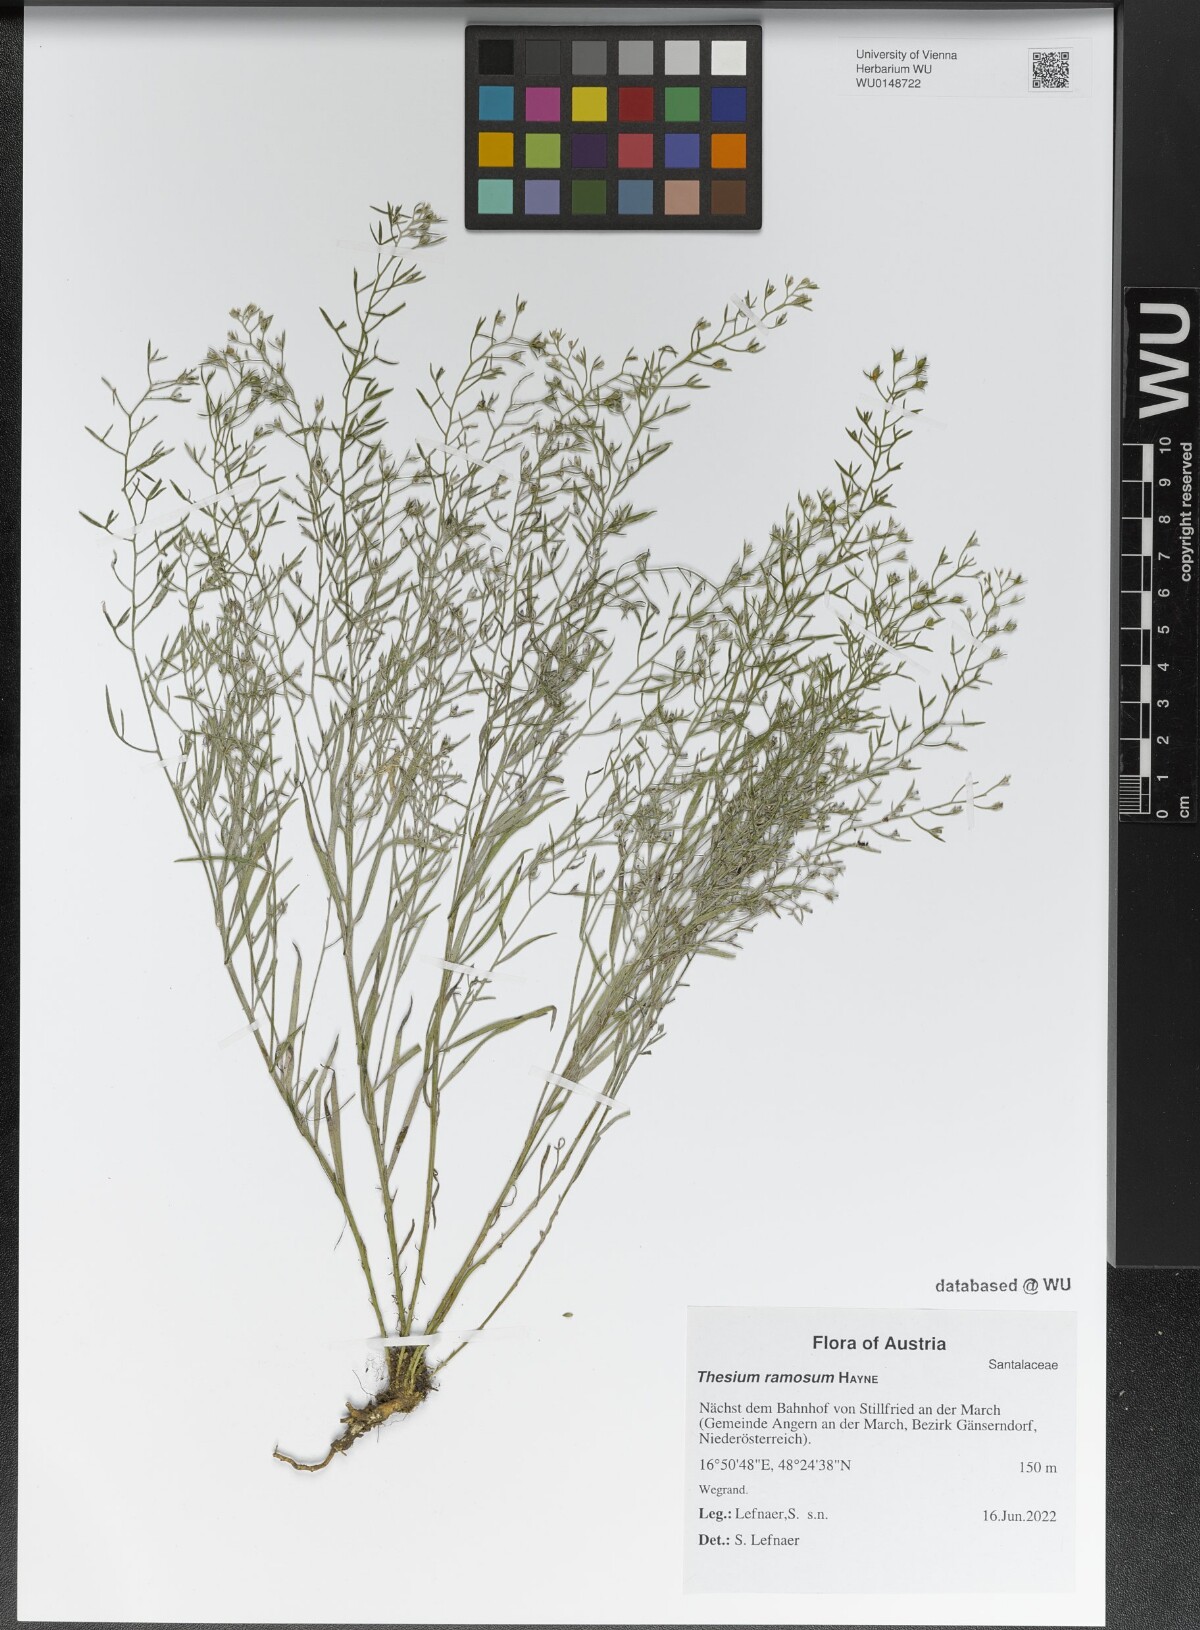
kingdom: Plantae
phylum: Tracheophyta
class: Magnoliopsida
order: Santalales
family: Thesiaceae
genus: Thesium
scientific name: Thesium ramosum
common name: Field thesium
